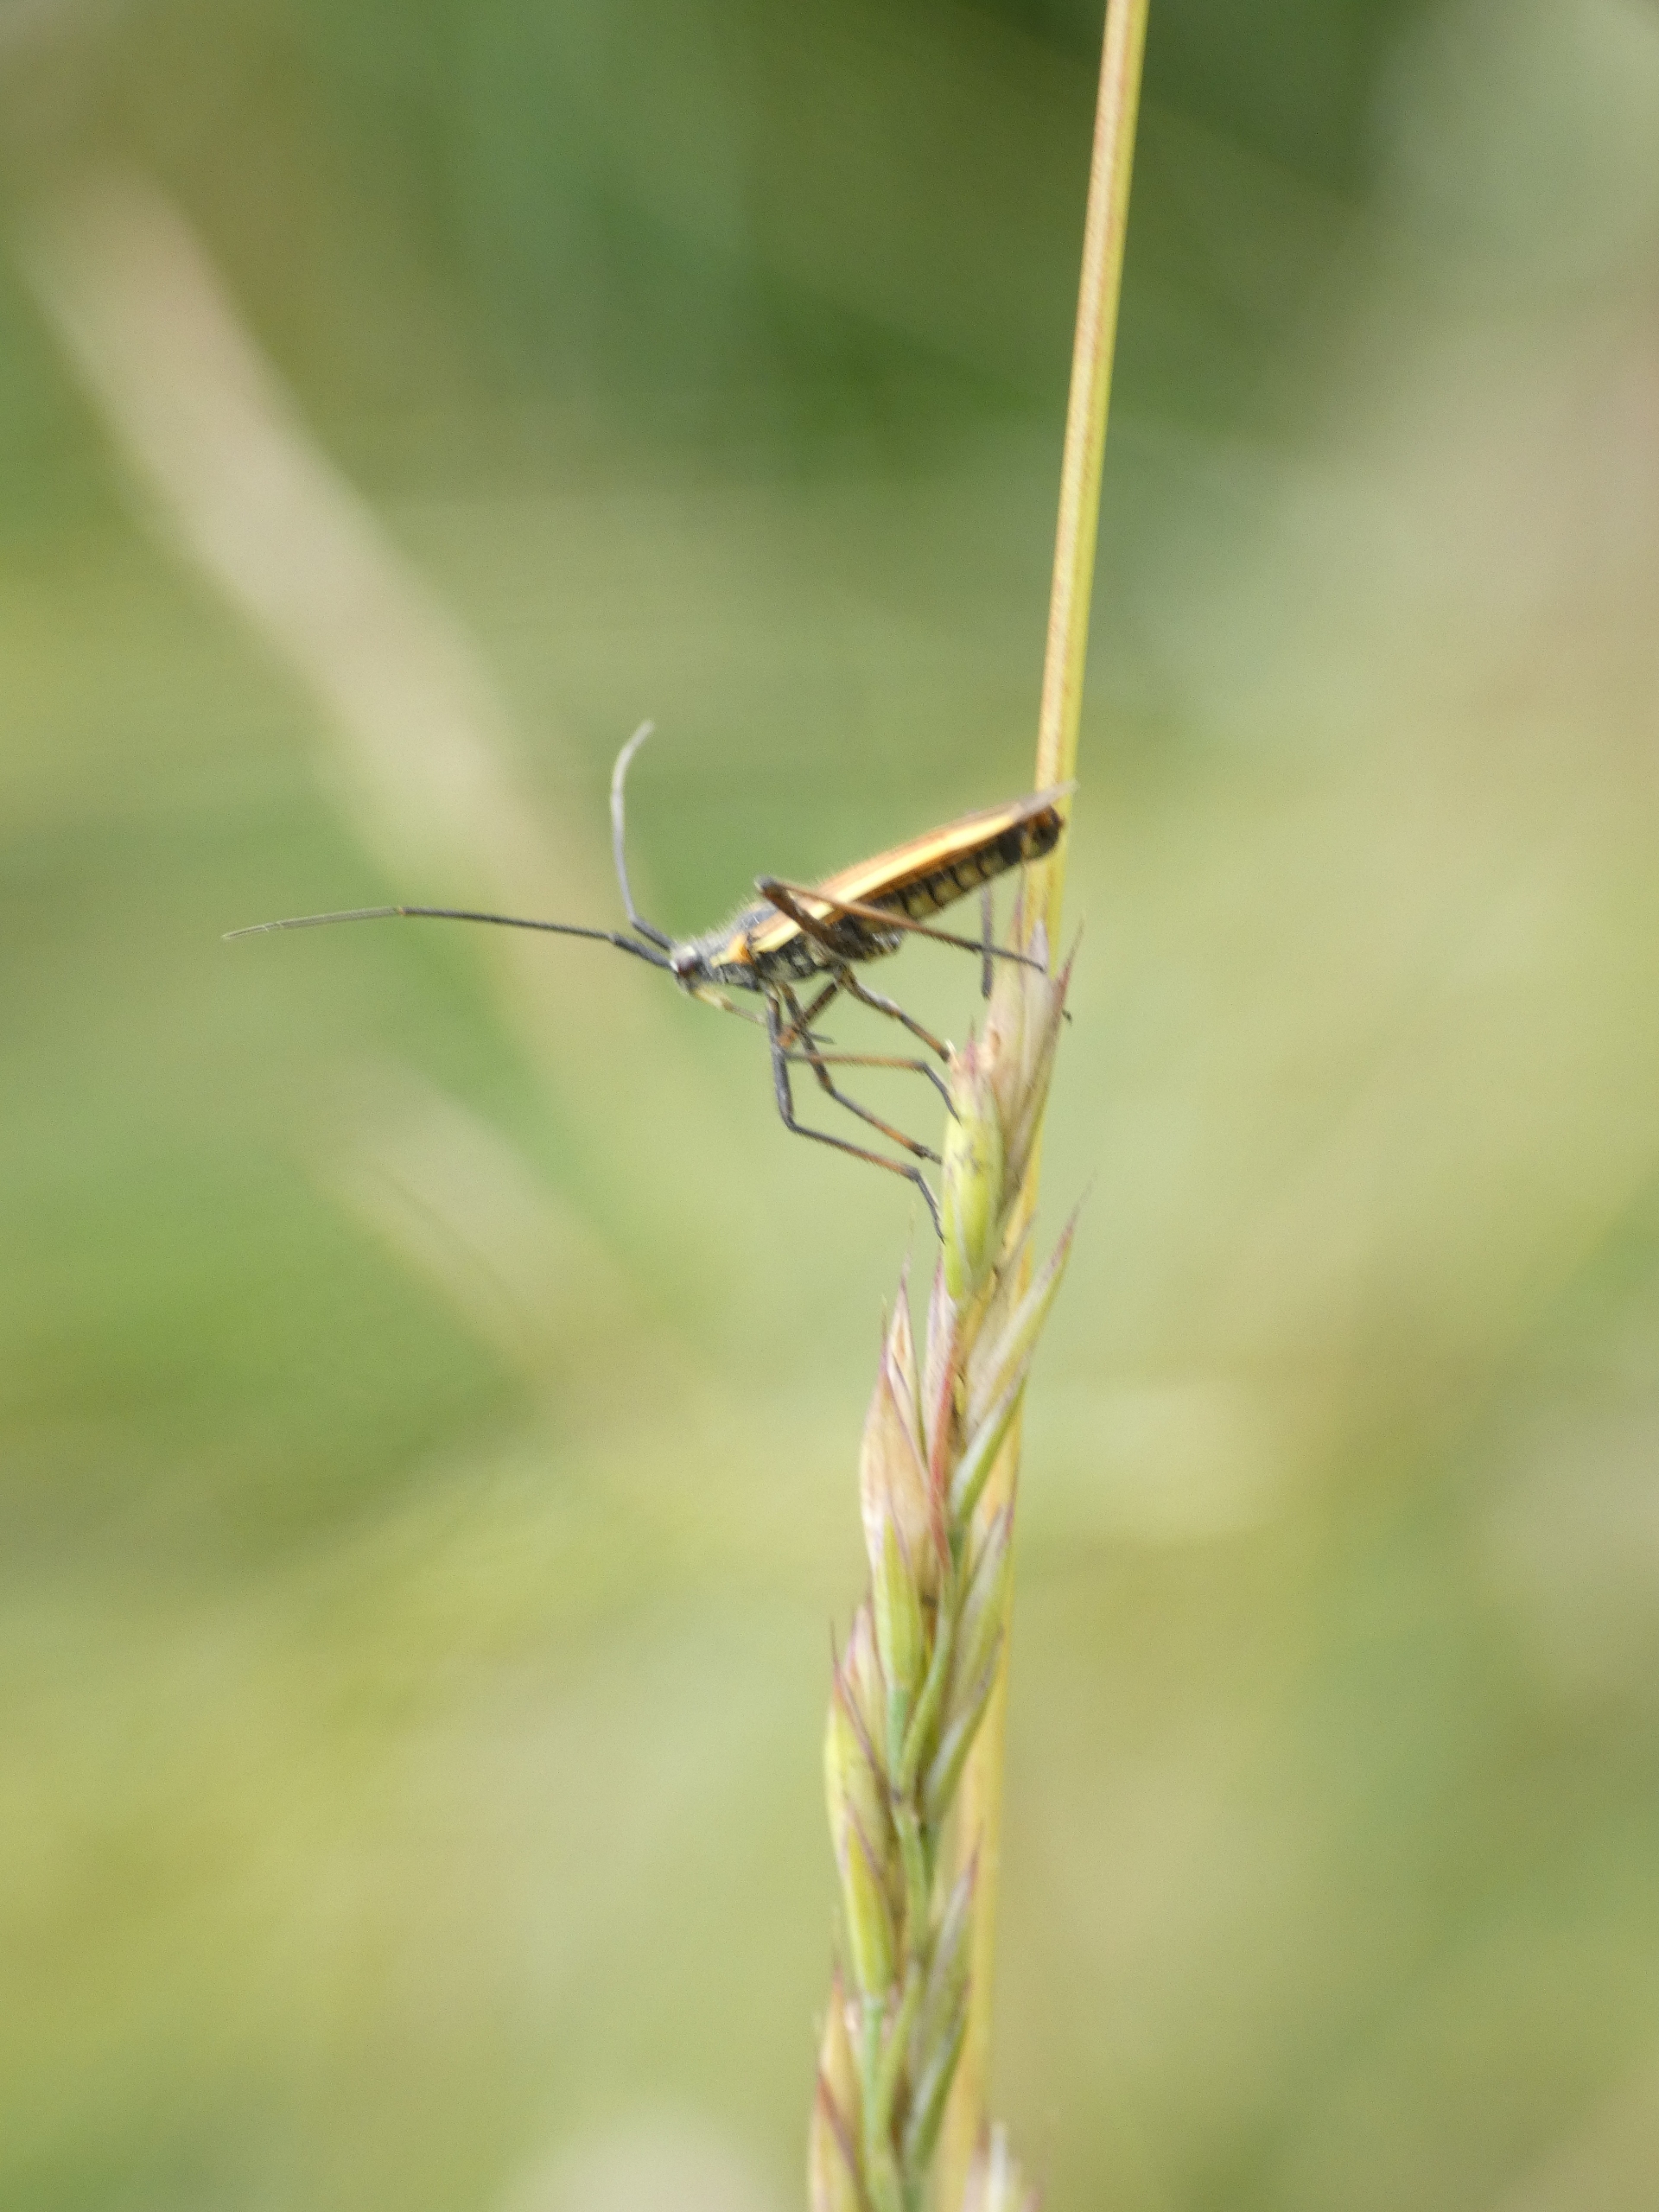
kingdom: Animalia
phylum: Arthropoda
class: Insecta
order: Hemiptera
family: Miridae
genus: Leptopterna
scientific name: Leptopterna dolabrata
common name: Almindelig græstæge
